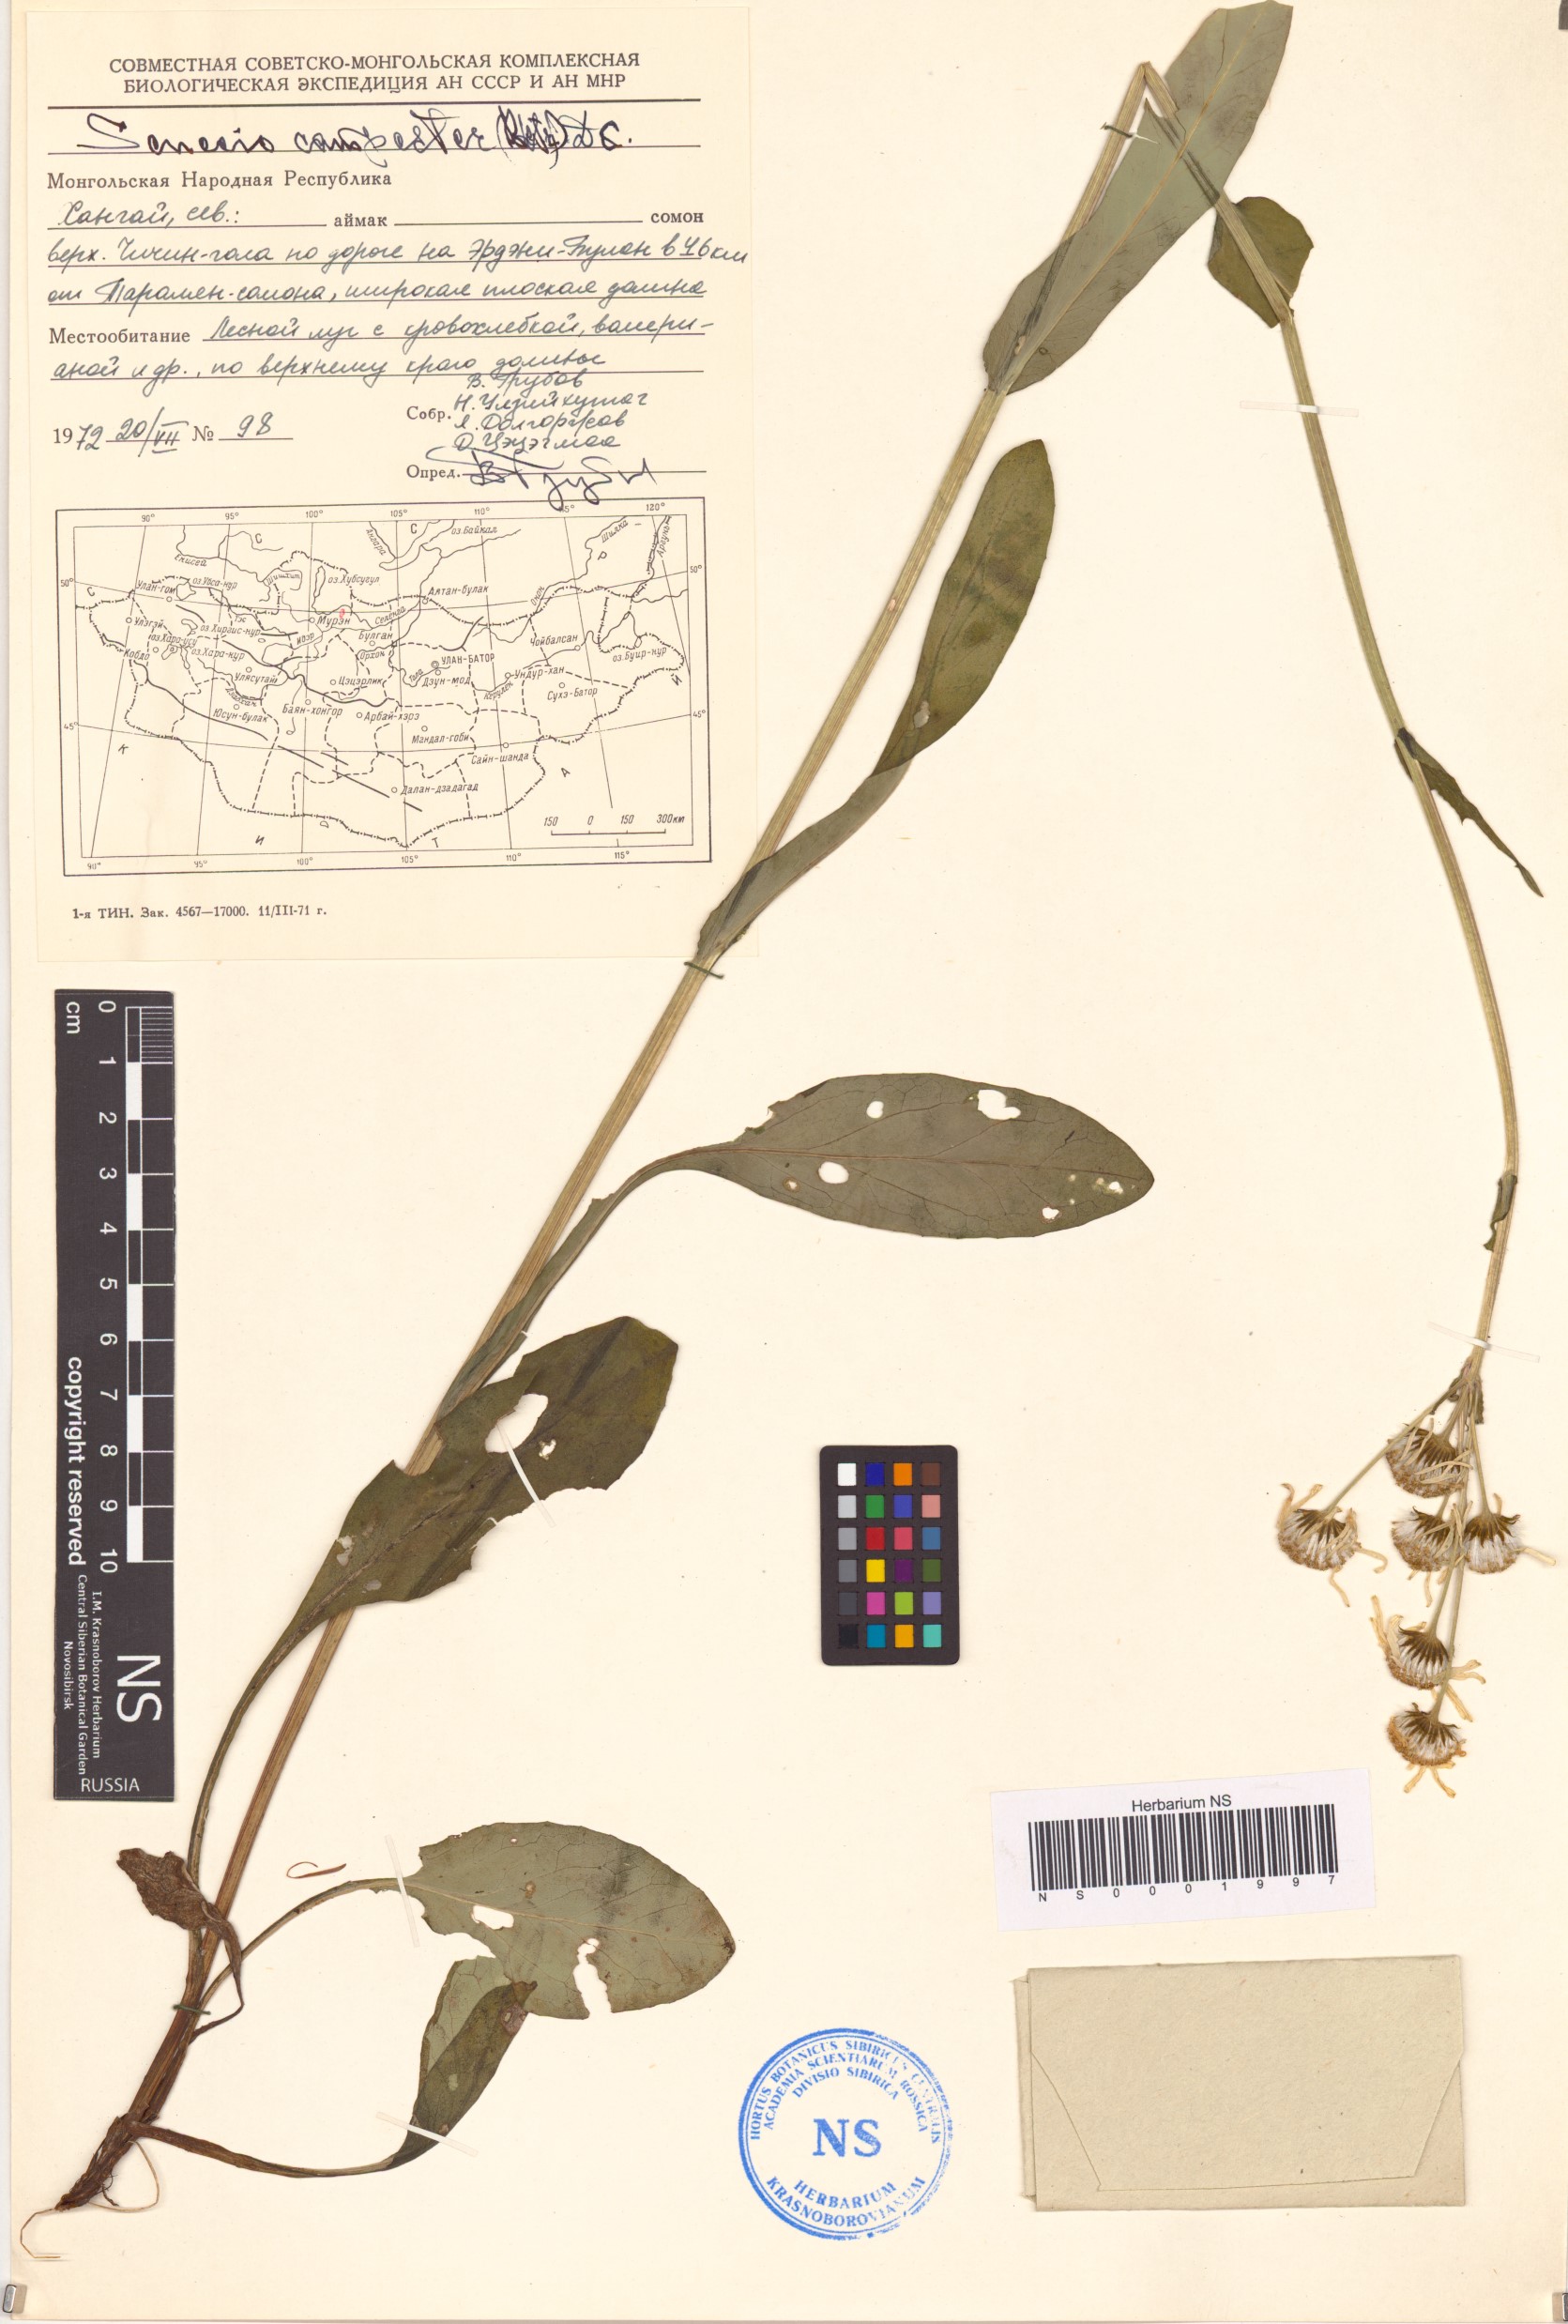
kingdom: Plantae
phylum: Tracheophyta
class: Magnoliopsida
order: Asterales
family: Asteraceae
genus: Tephroseris
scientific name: Tephroseris integrifolia
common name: Field fleawort
